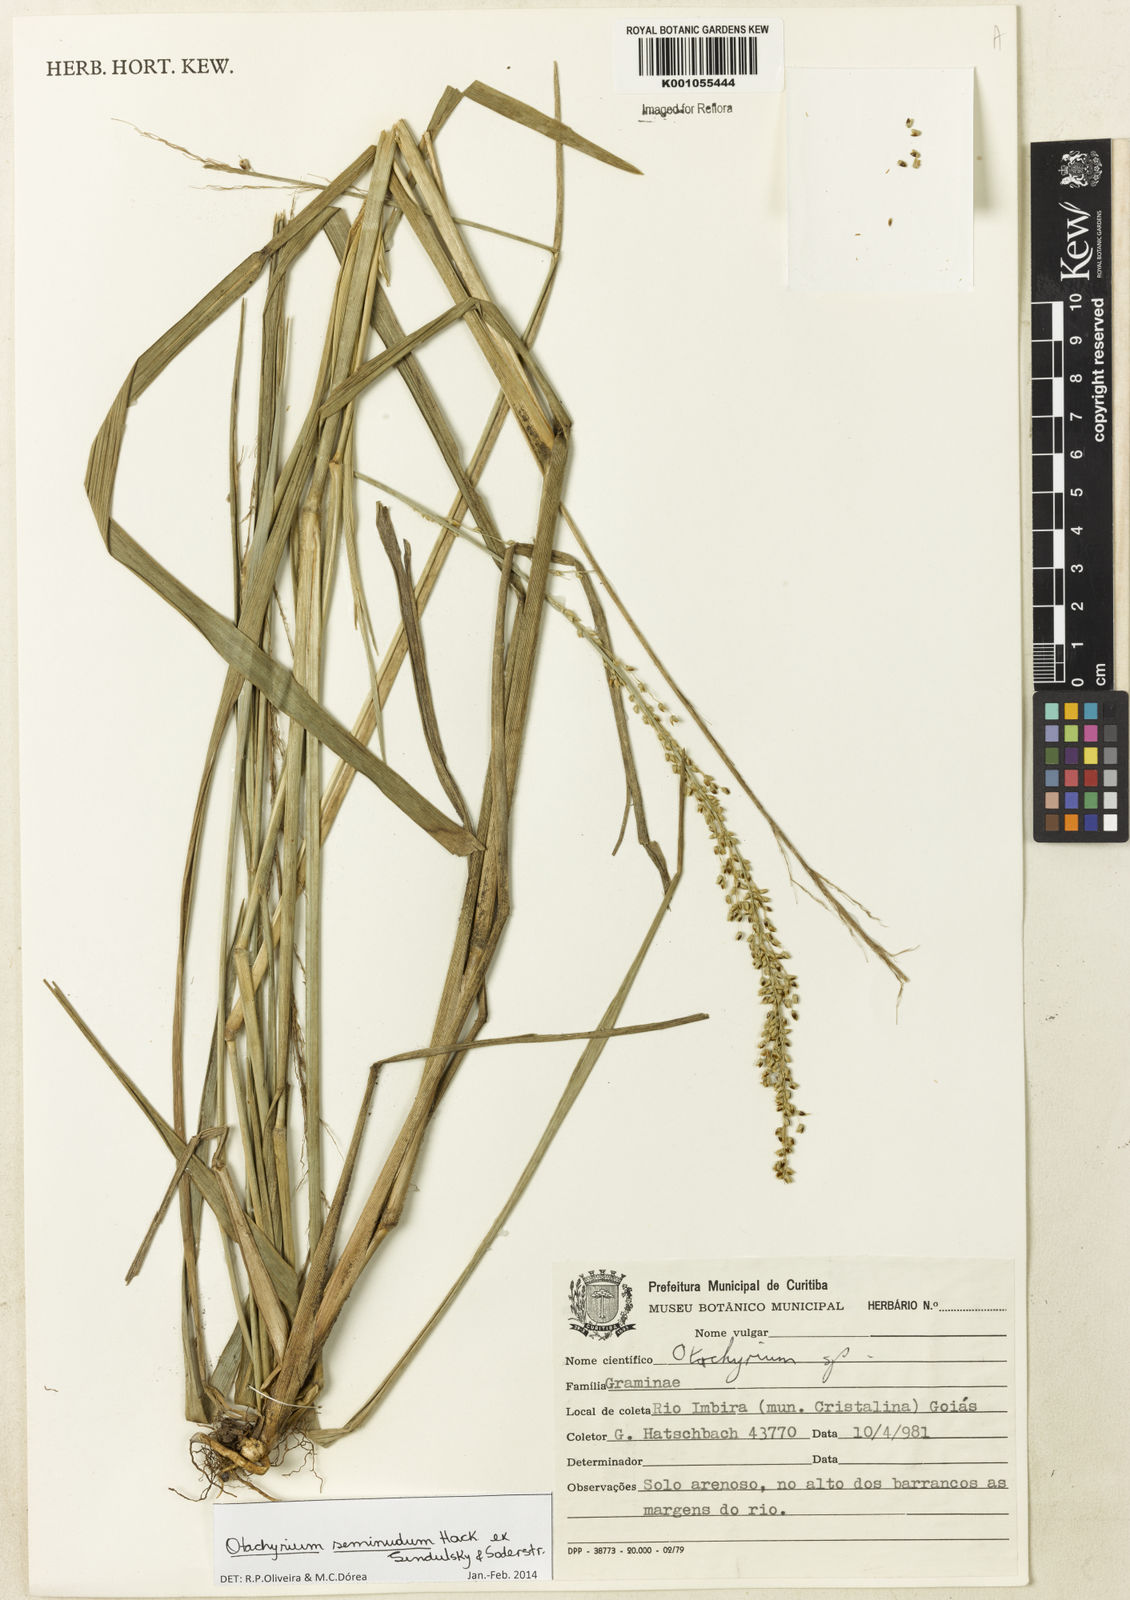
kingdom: Plantae
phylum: Tracheophyta
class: Liliopsida
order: Poales
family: Poaceae
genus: Otachyrium
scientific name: Otachyrium seminudum
